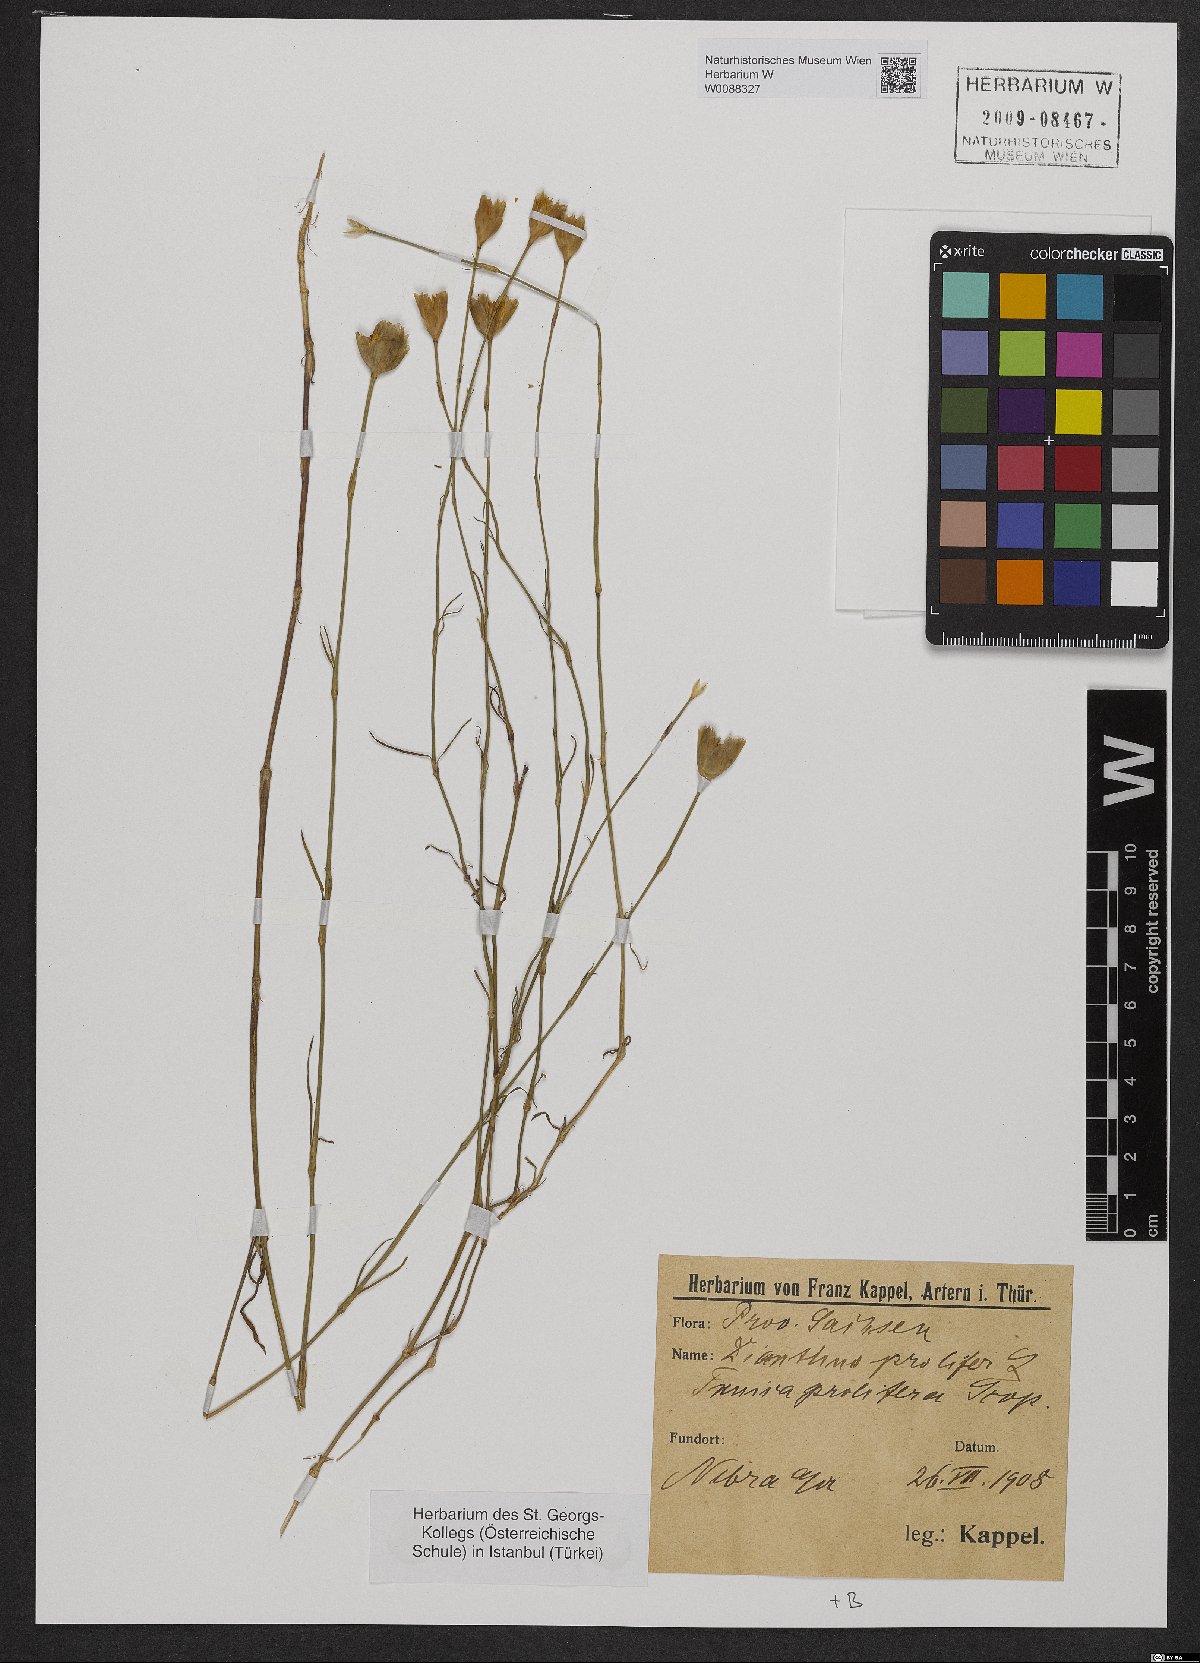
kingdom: Plantae
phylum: Tracheophyta
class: Magnoliopsida
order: Caryophyllales
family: Caryophyllaceae
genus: Petrorhagia
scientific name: Petrorhagia prolifera
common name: Proliferous pink
